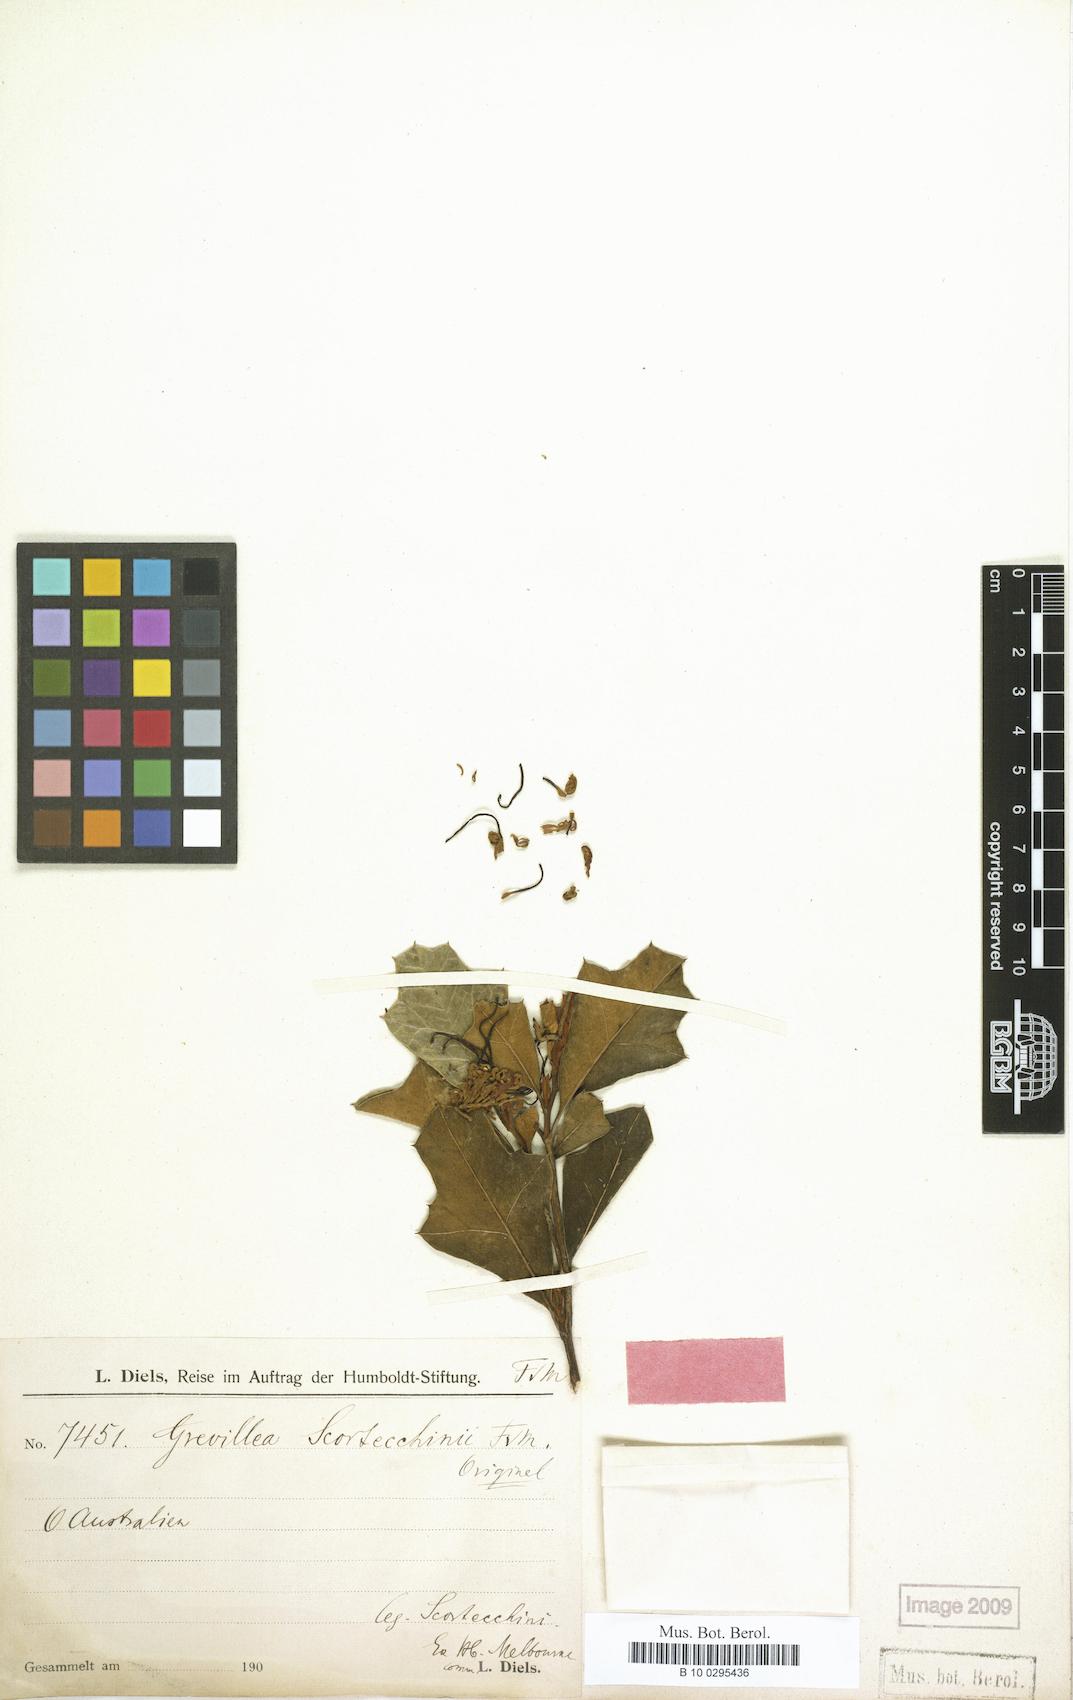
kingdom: Plantae
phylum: Tracheophyta
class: Magnoliopsida
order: Proteales
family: Proteaceae
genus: Grevillea
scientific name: Grevillea scortechinii
